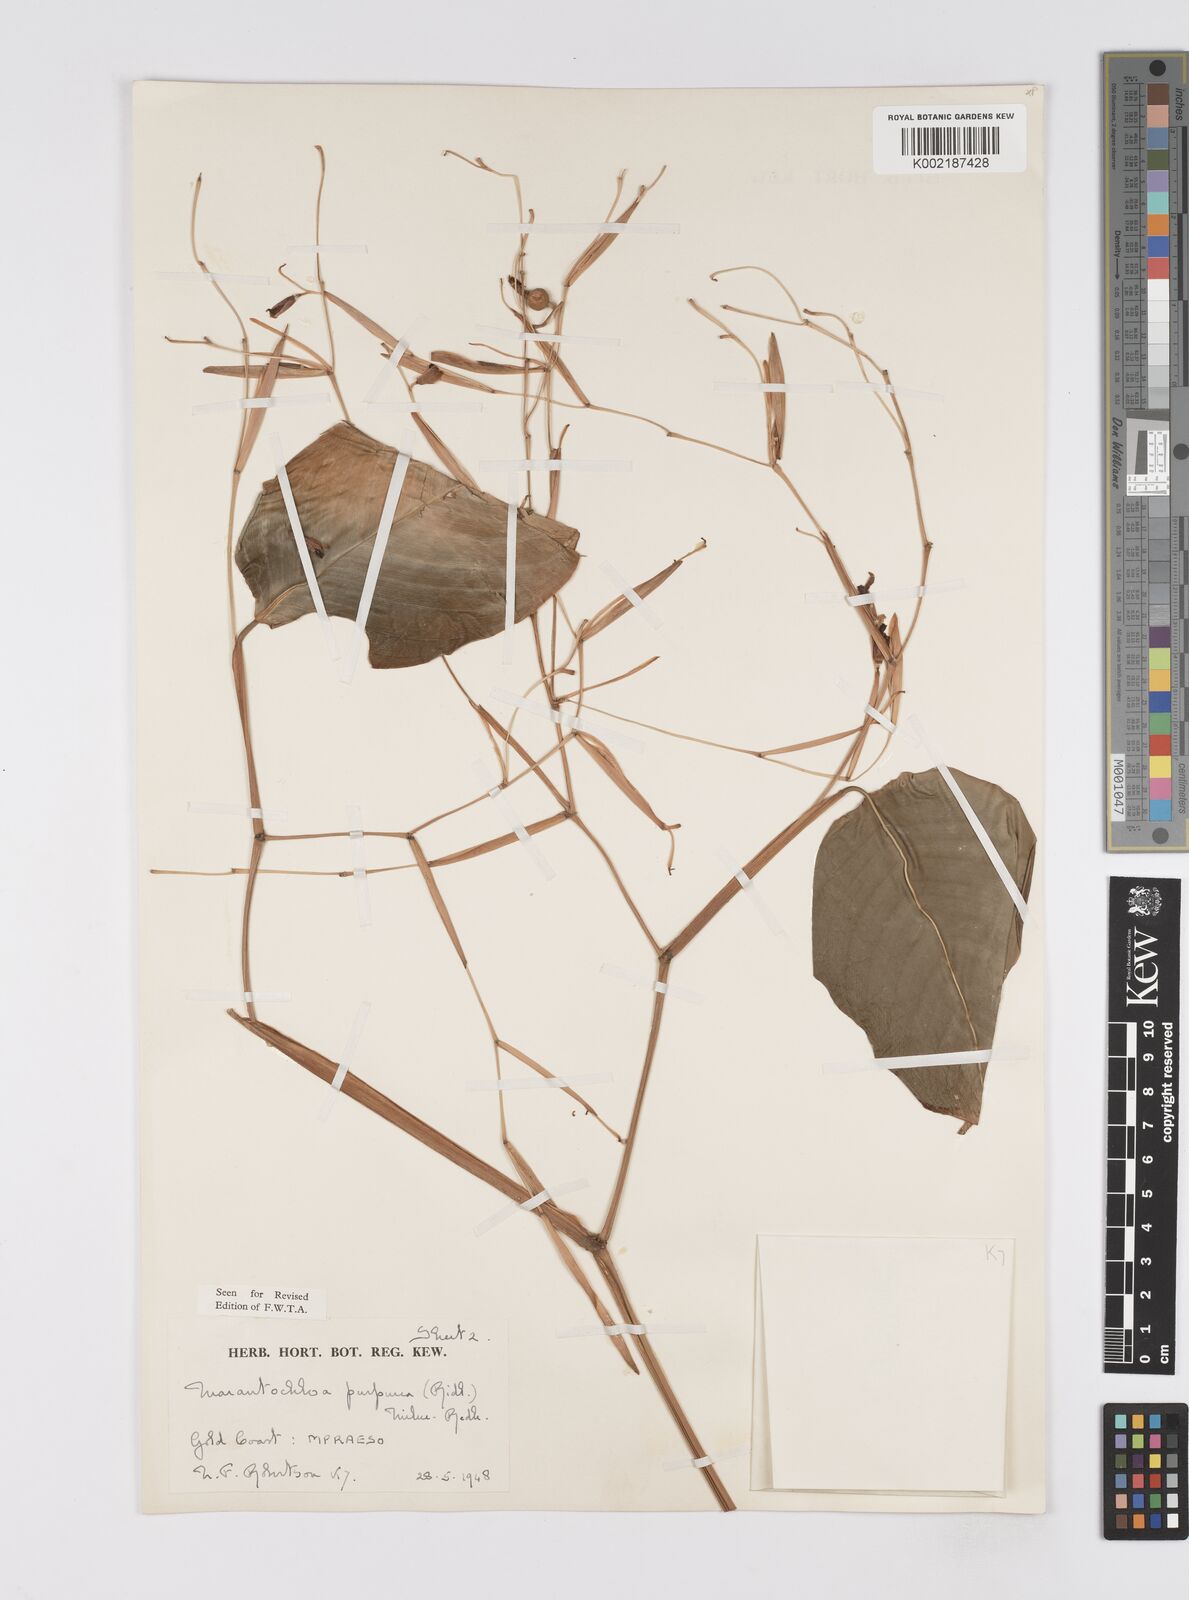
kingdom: Plantae
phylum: Tracheophyta
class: Liliopsida
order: Zingiberales
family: Marantaceae
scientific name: Marantaceae
